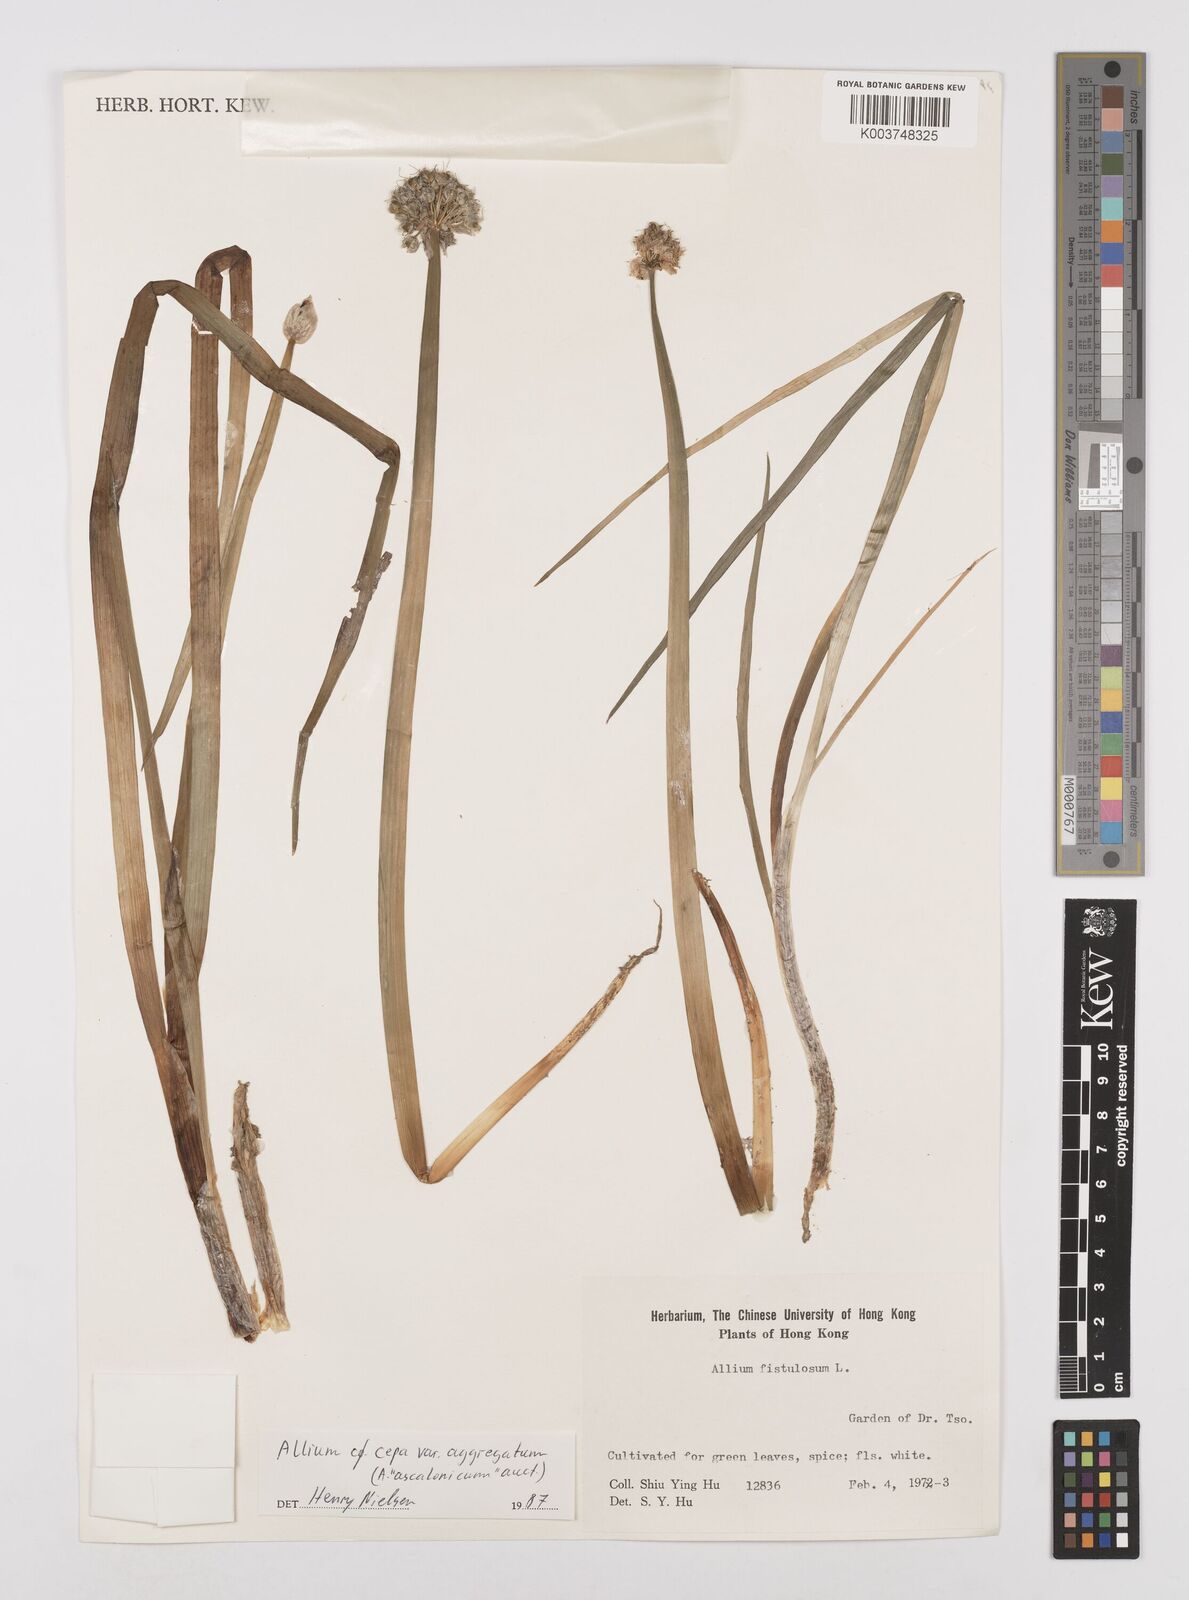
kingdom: Plantae
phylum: Tracheophyta
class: Liliopsida
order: Asparagales
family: Amaryllidaceae
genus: Allium
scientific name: Allium cepa
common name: Onion
